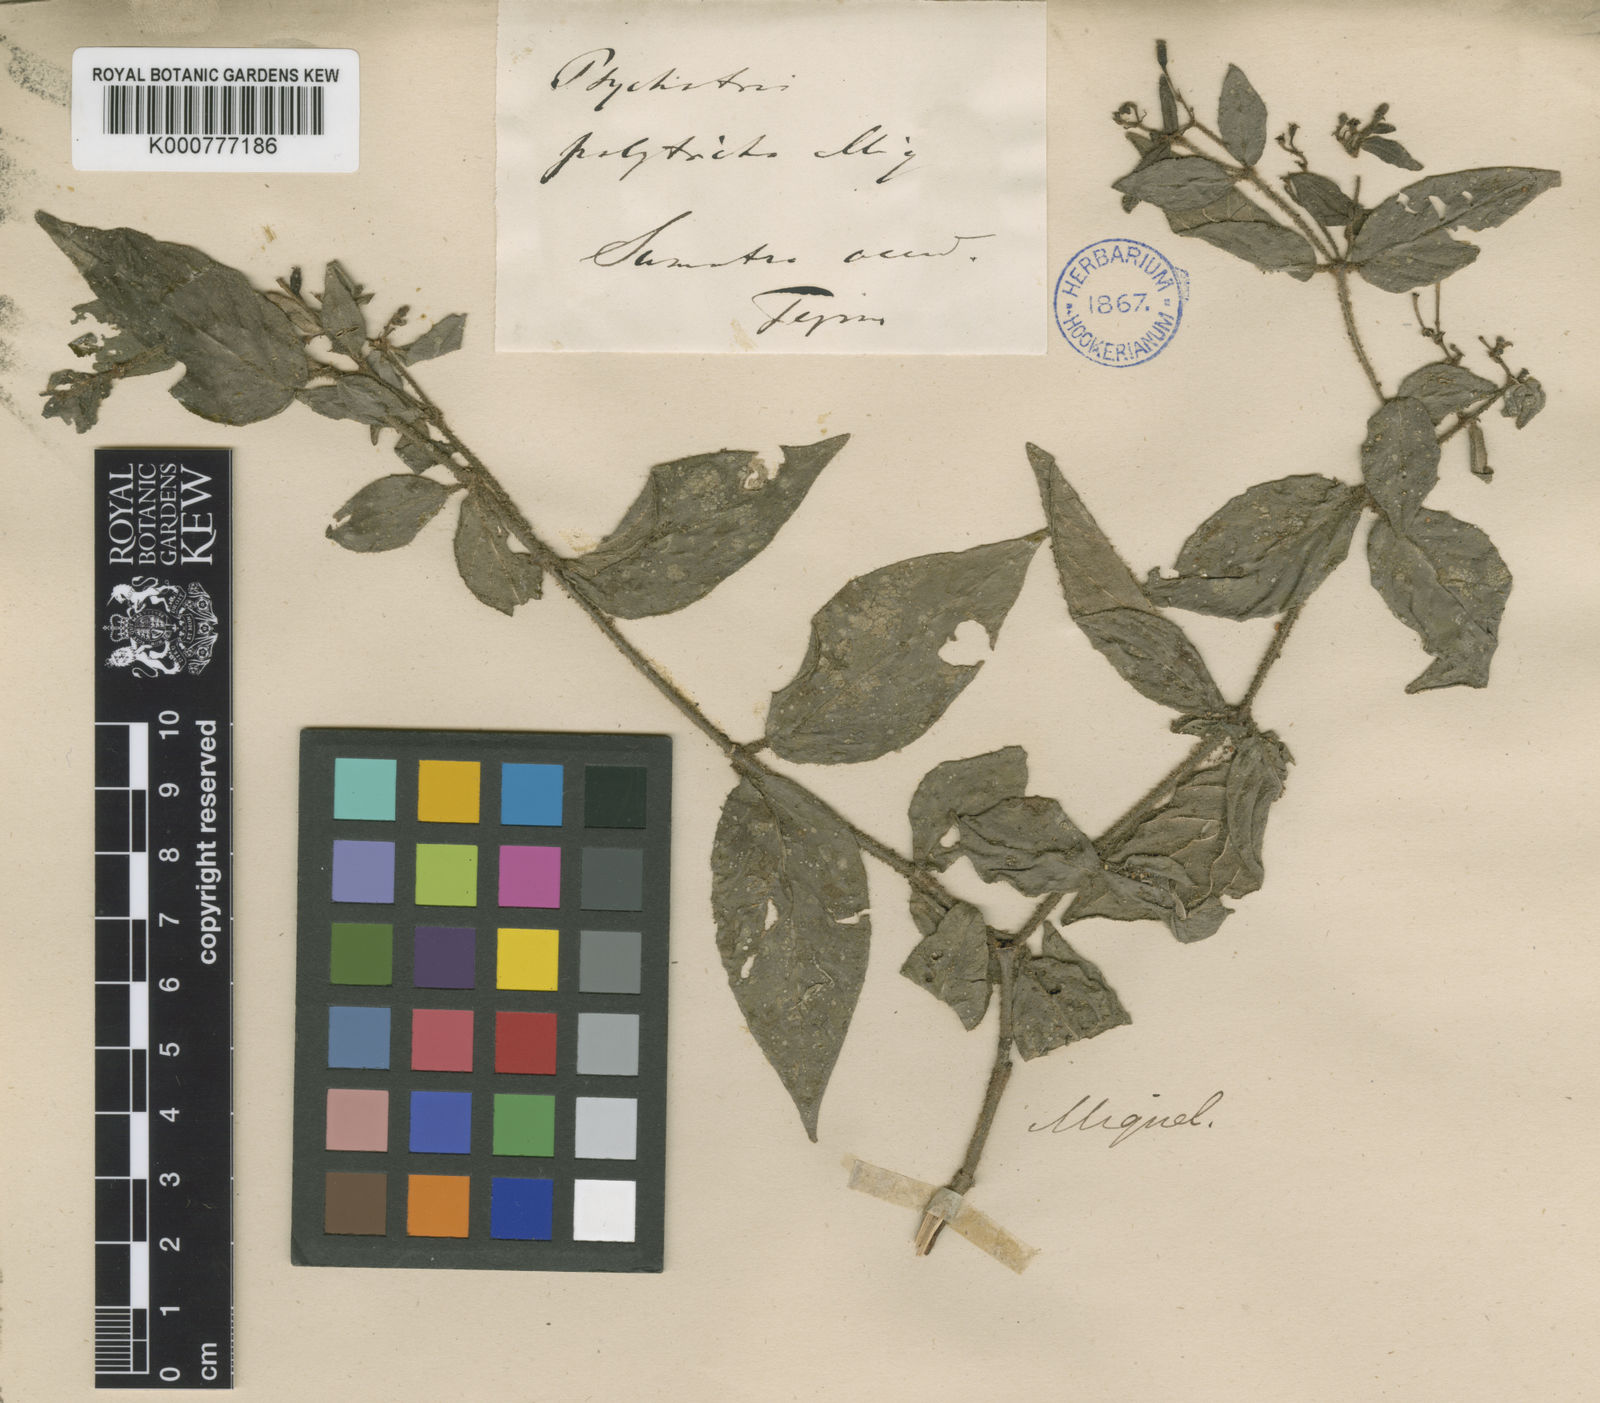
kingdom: Plantae
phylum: Tracheophyta
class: Magnoliopsida
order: Gentianales
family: Rubiaceae
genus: Psychotria
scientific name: Psychotria polytricha
